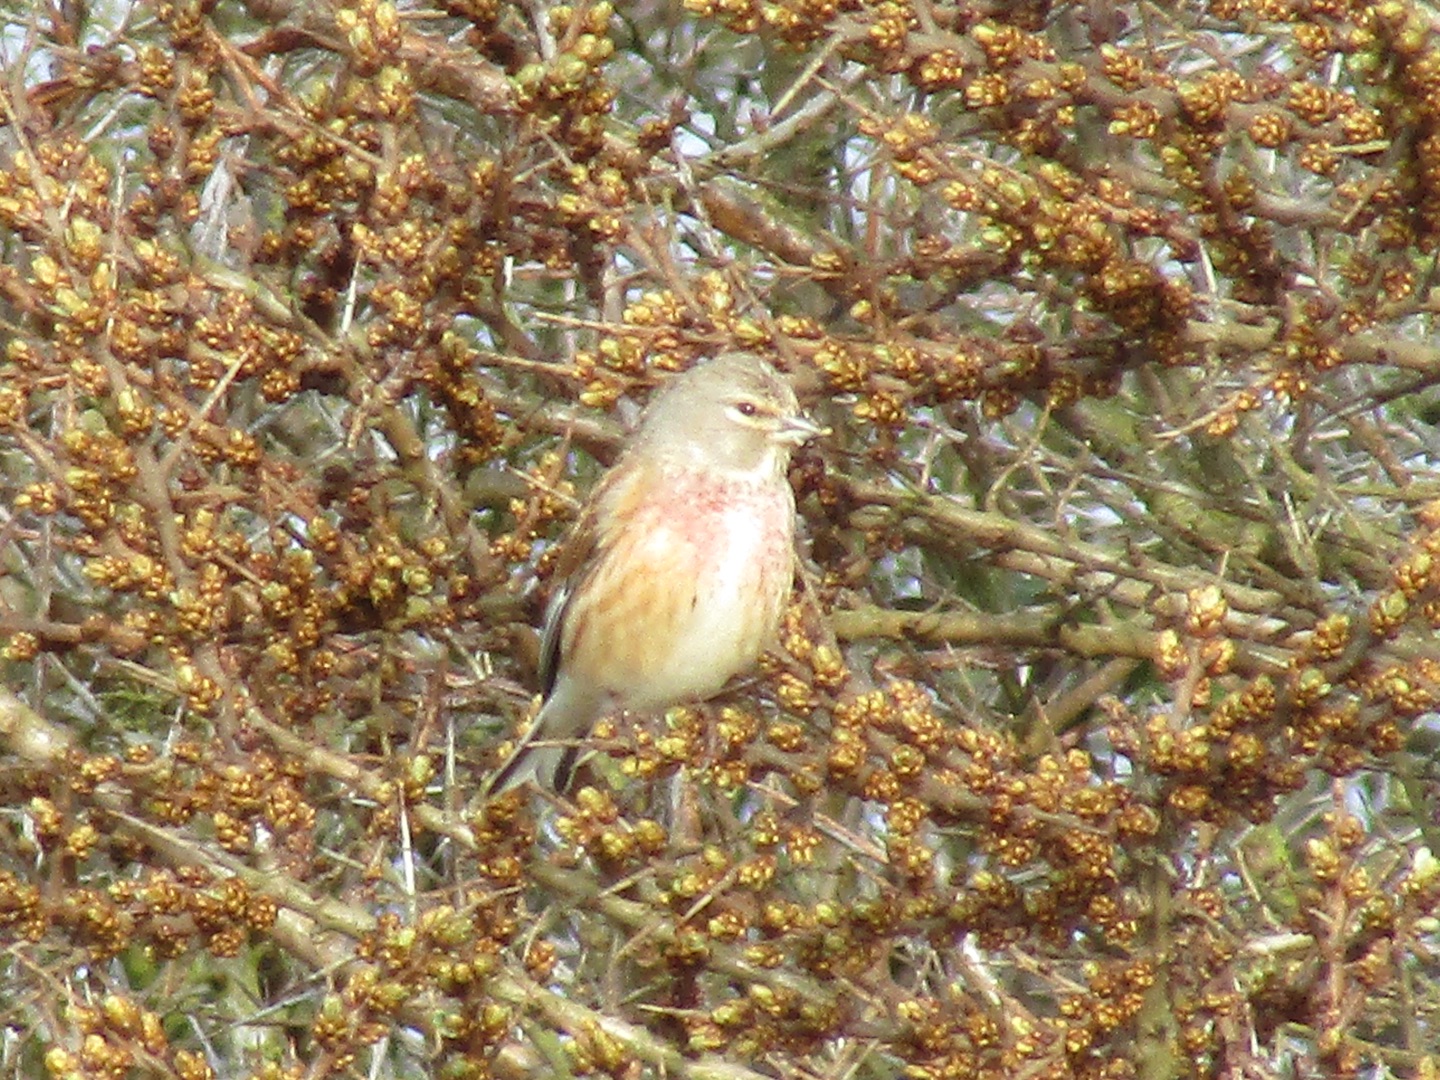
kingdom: Animalia
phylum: Chordata
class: Aves
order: Passeriformes
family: Fringillidae
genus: Linaria
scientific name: Linaria cannabina
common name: Tornirisk
